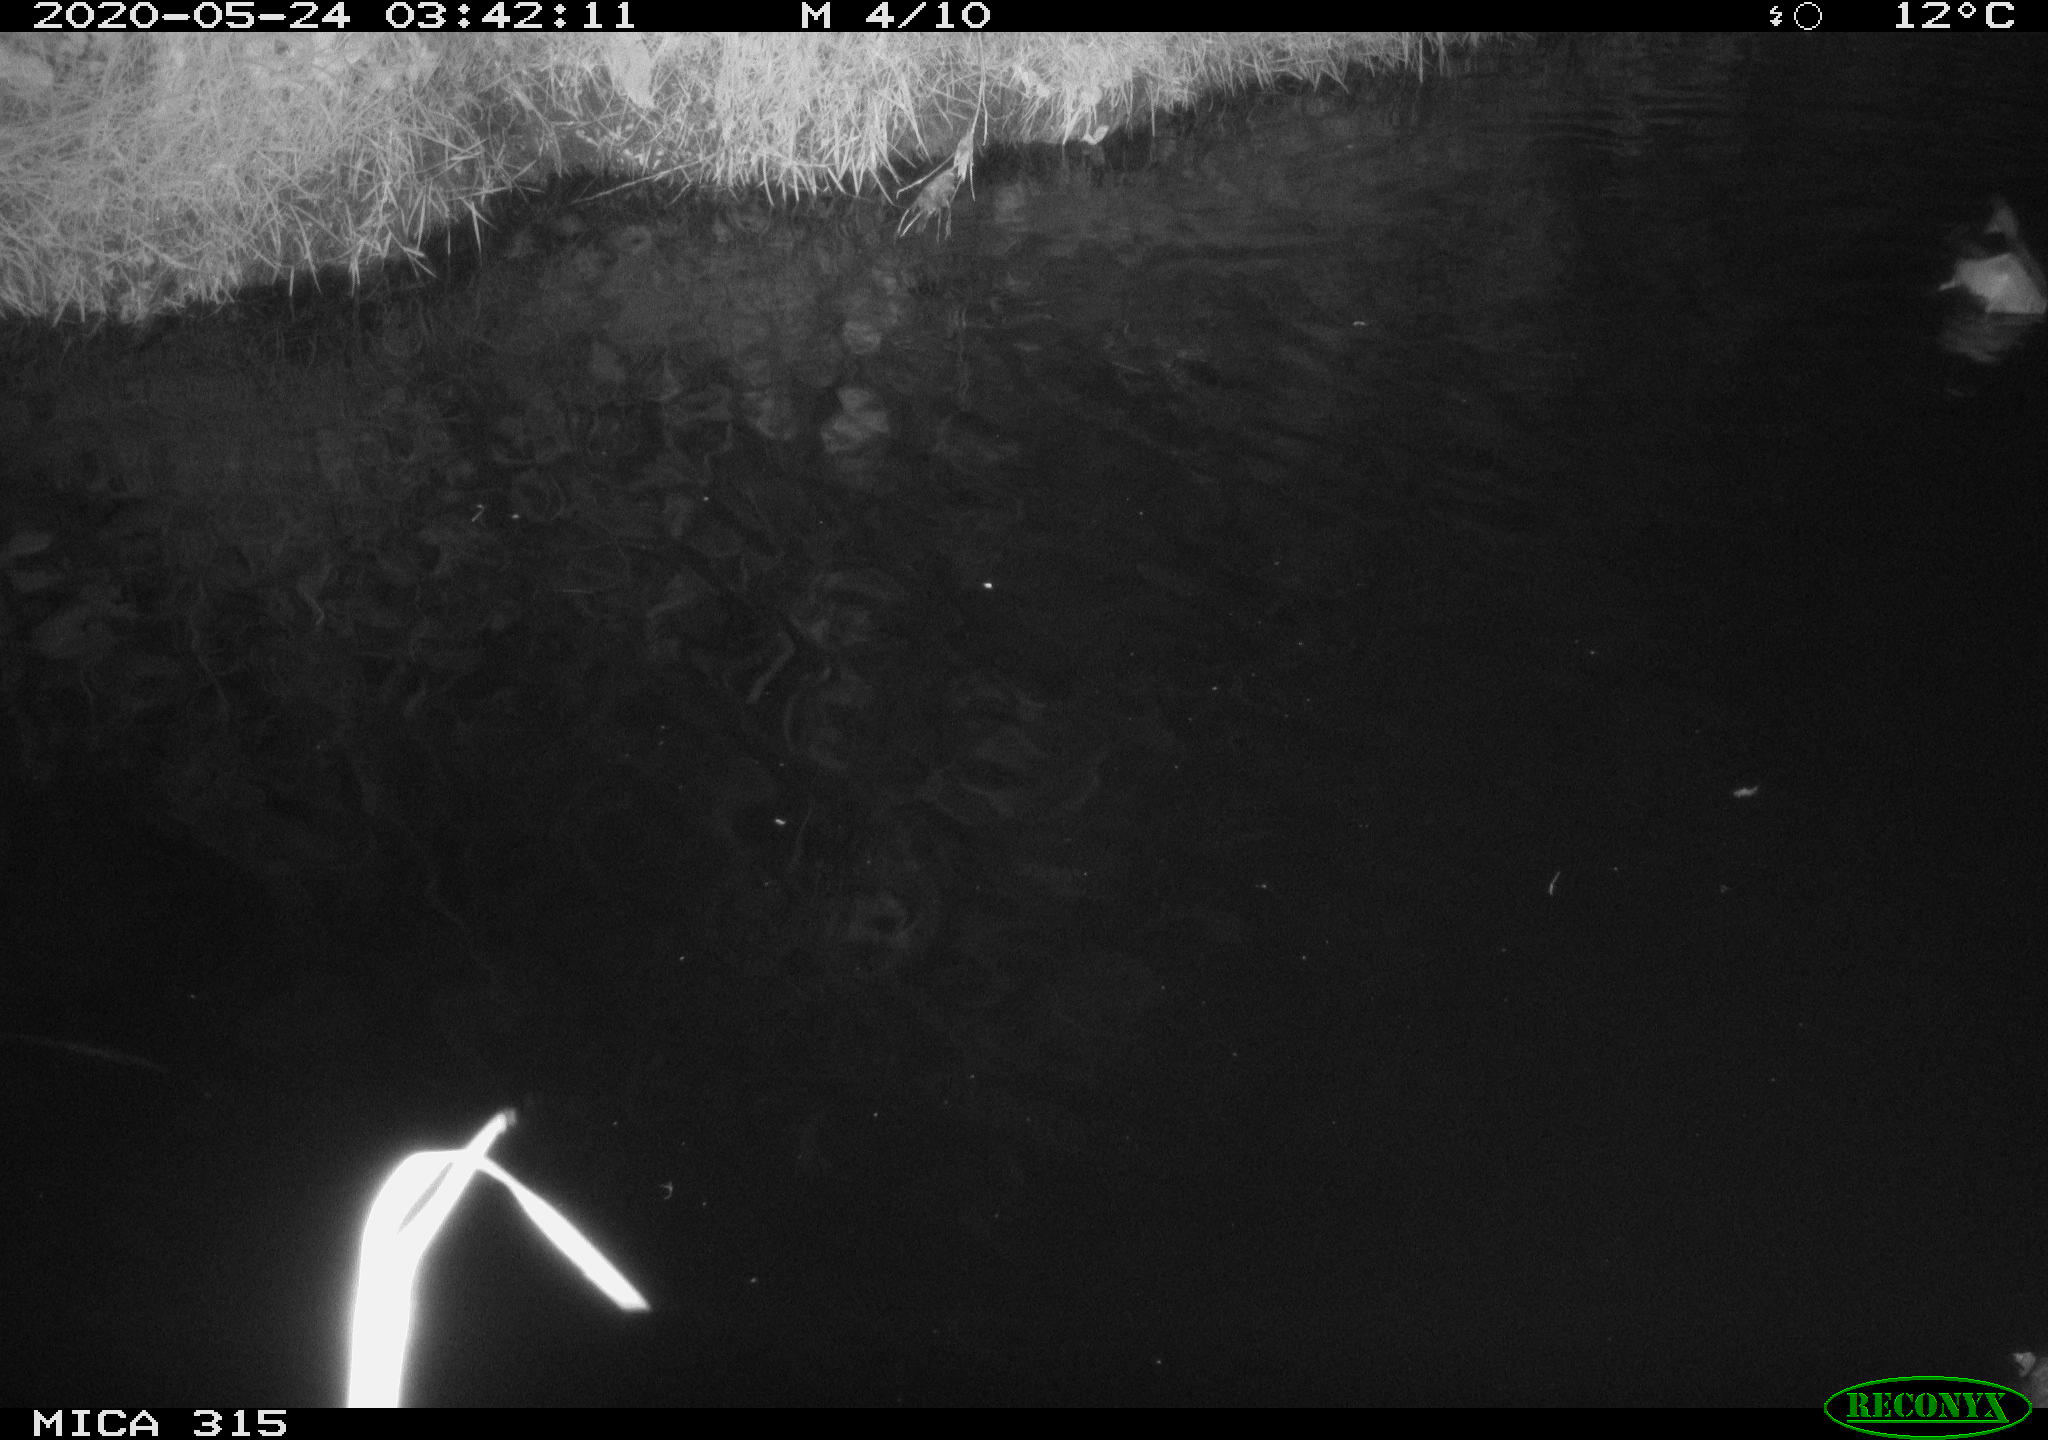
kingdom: Animalia
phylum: Chordata
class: Aves
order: Anseriformes
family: Anatidae
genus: Anas
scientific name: Anas platyrhynchos
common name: Mallard
